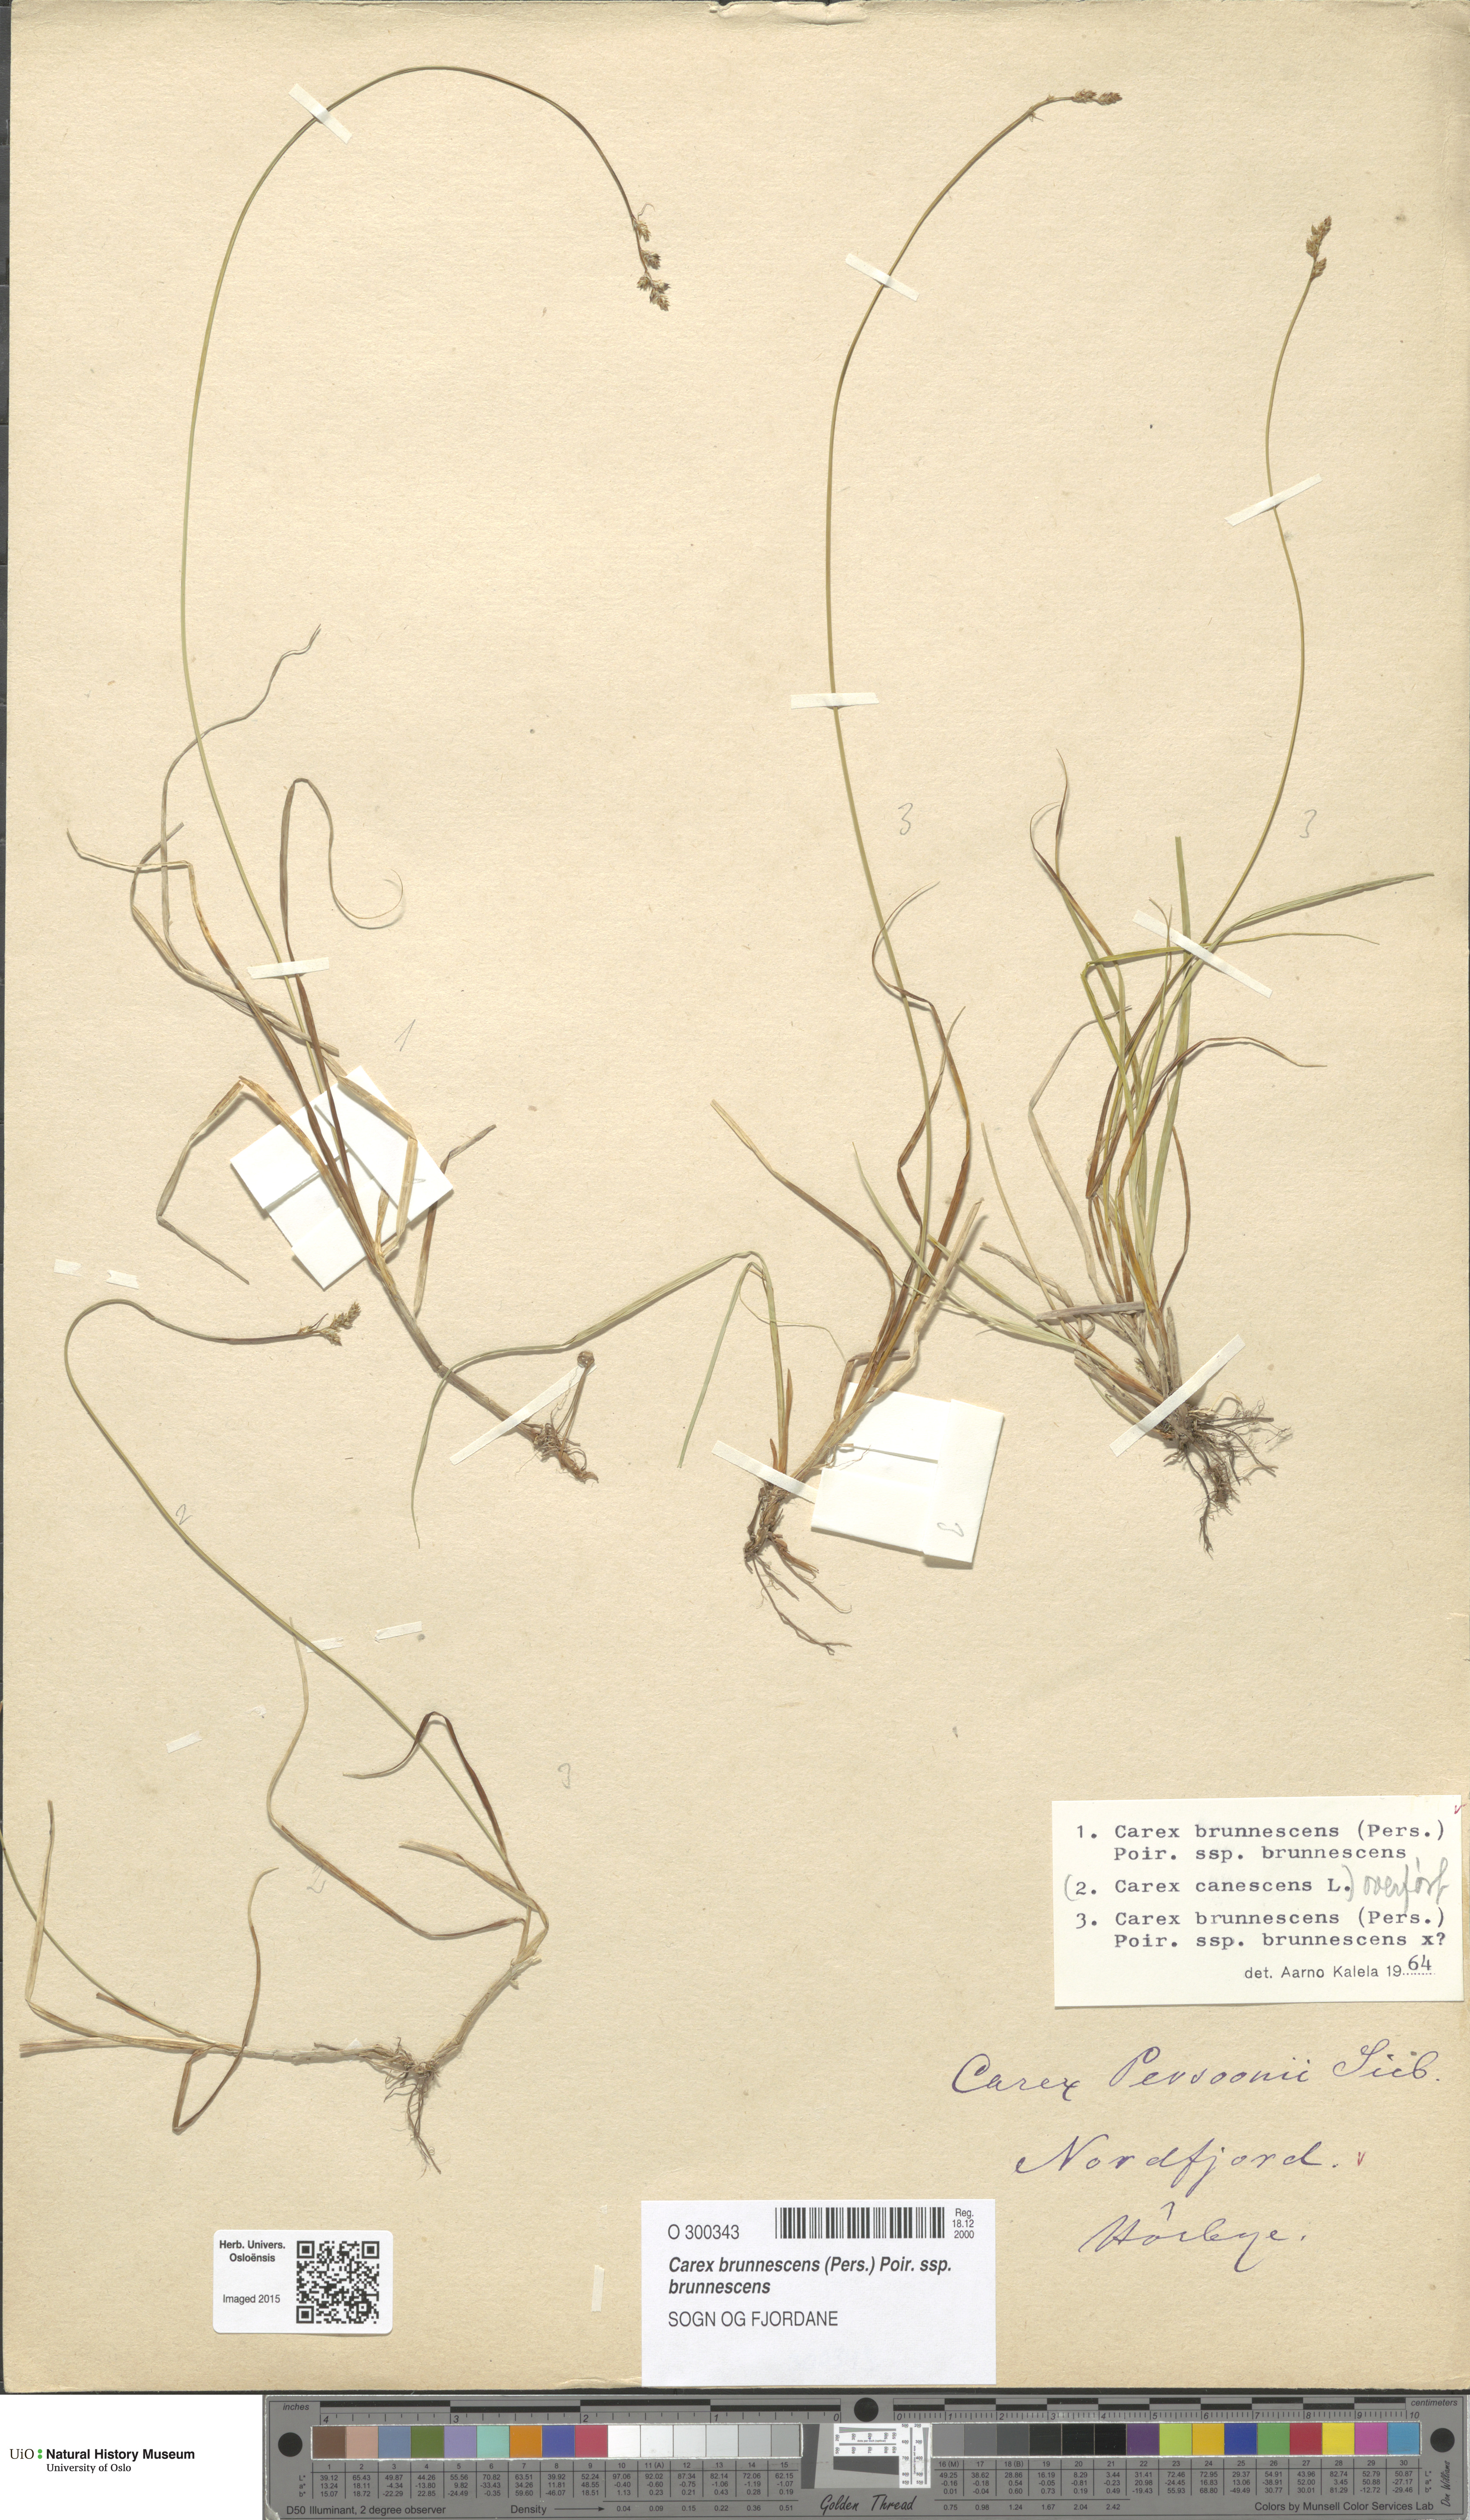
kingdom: Plantae
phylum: Tracheophyta
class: Liliopsida
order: Poales
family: Cyperaceae
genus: Carex
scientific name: Carex brunnescens
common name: Brown sedge
